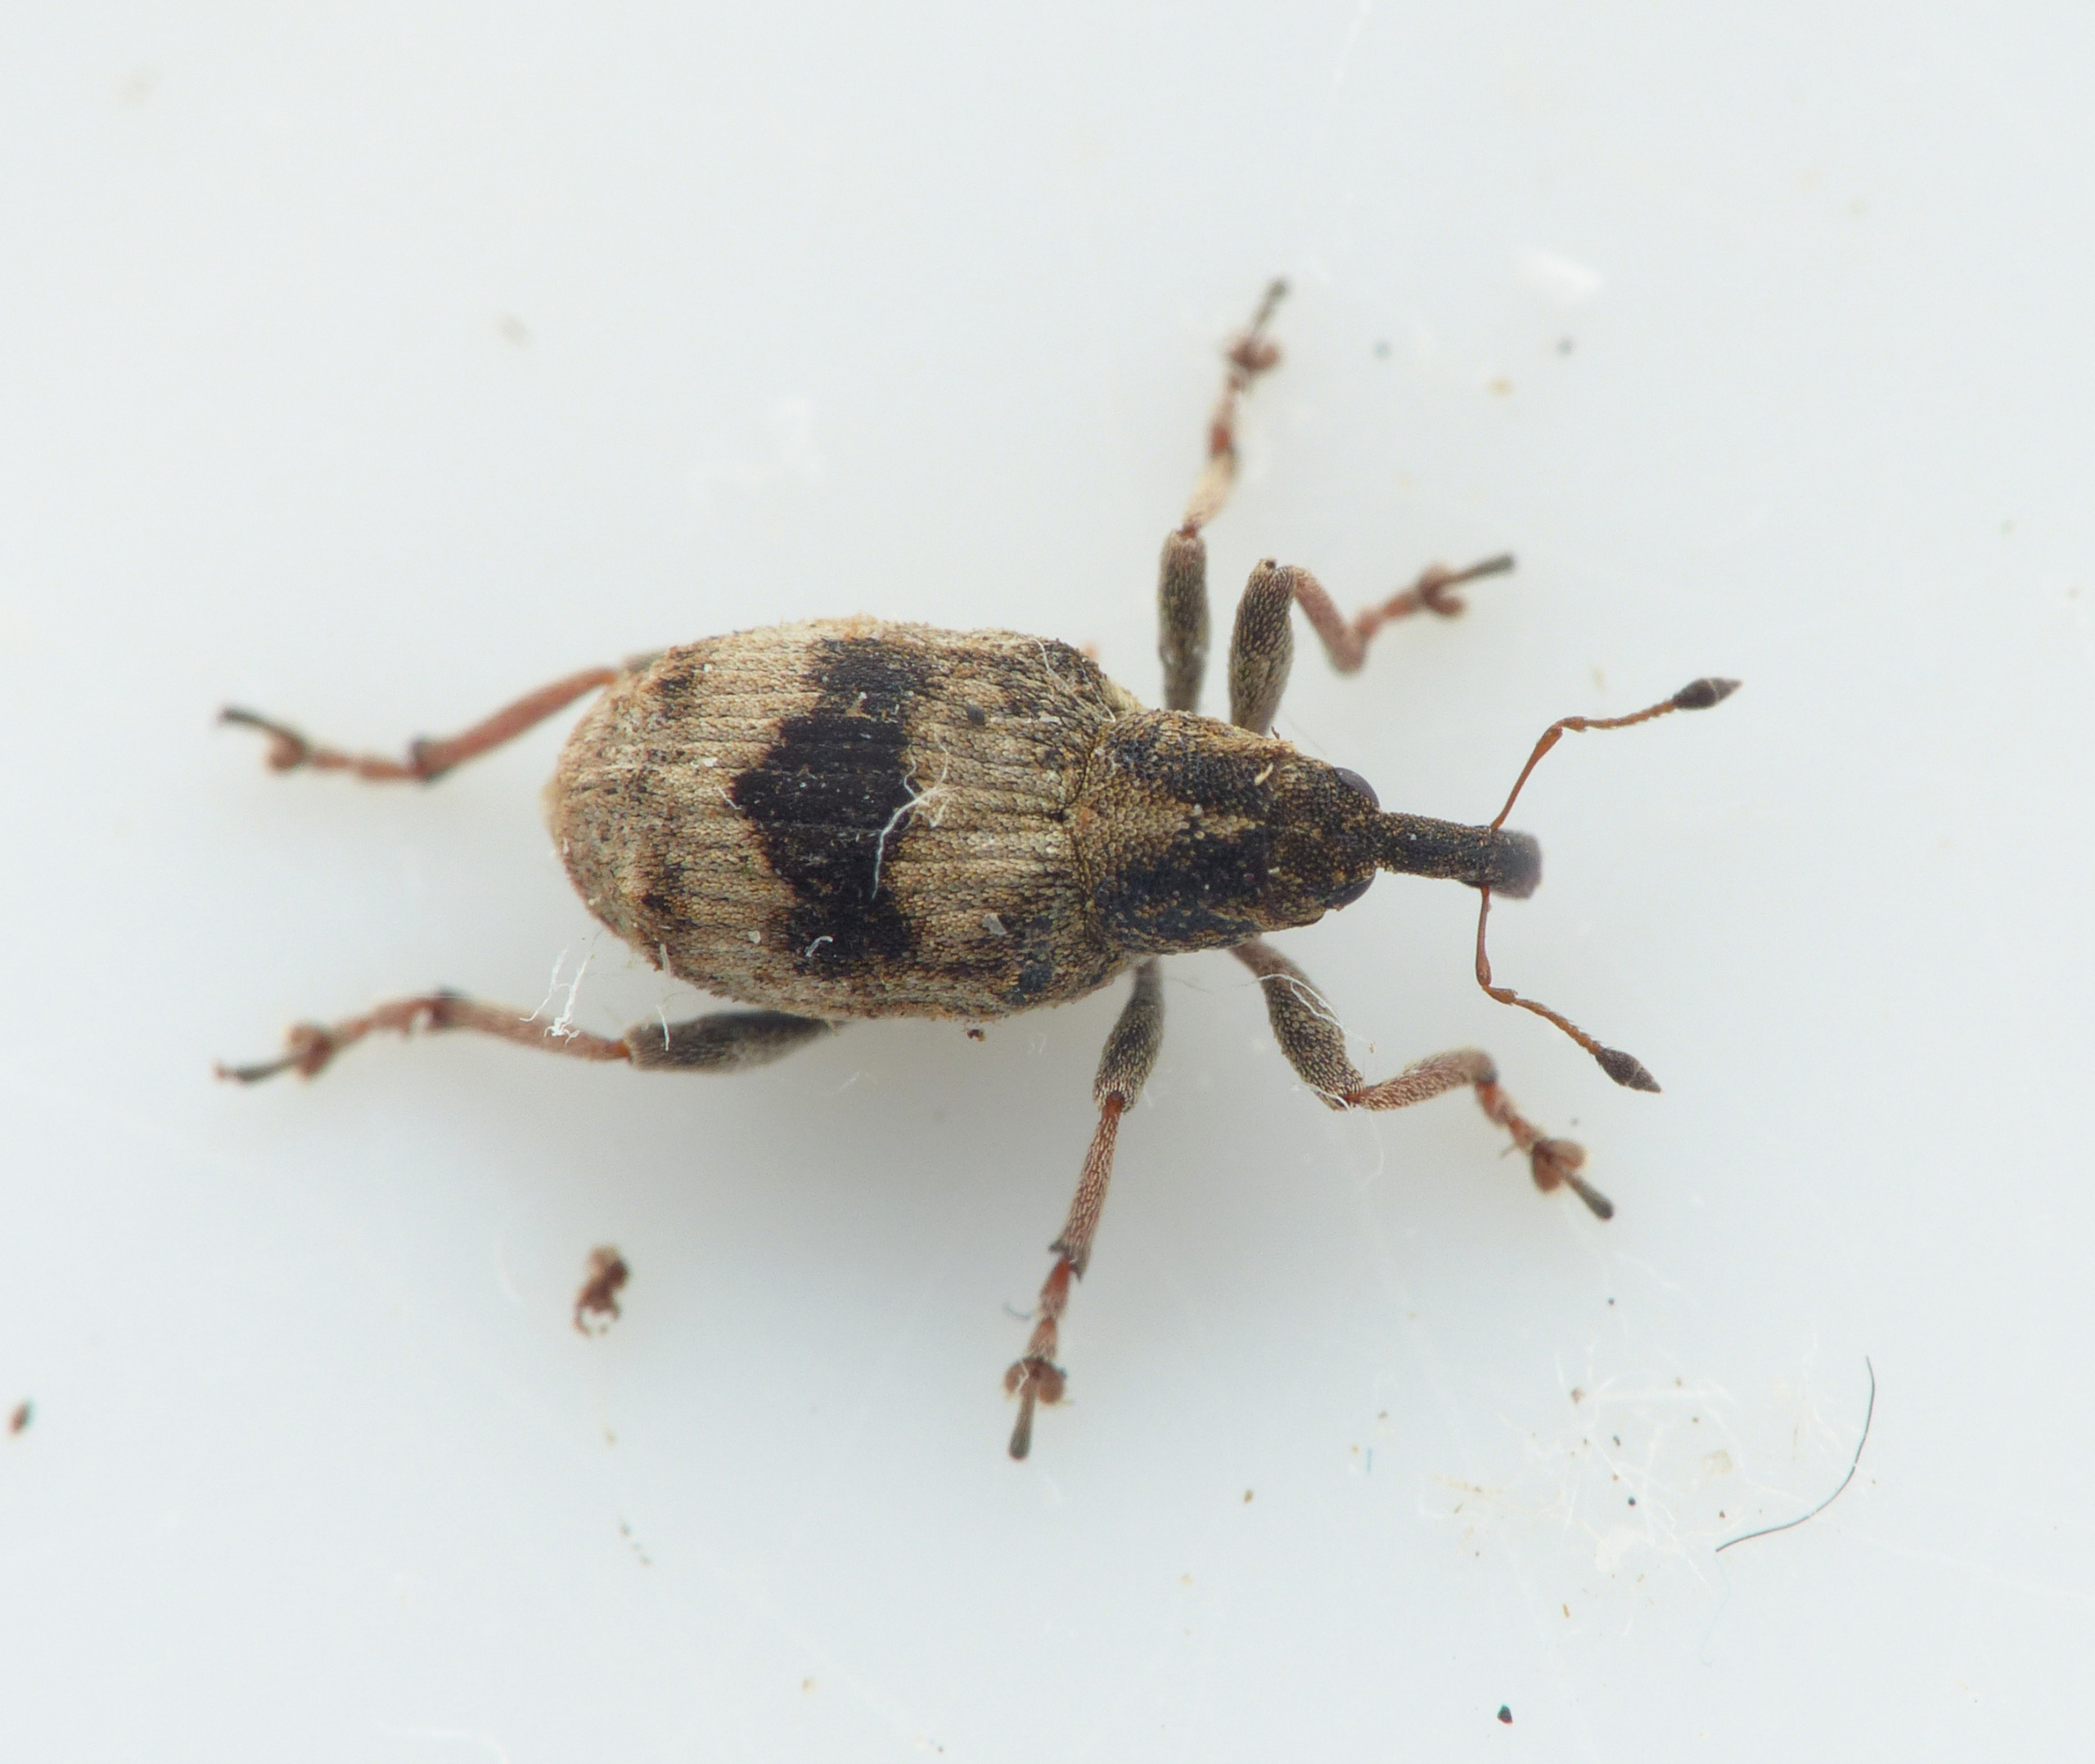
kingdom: Animalia
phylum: Arthropoda
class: Insecta
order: Coleoptera
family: Curculionidae
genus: Tapinotus
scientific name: Tapinotus sellatus
